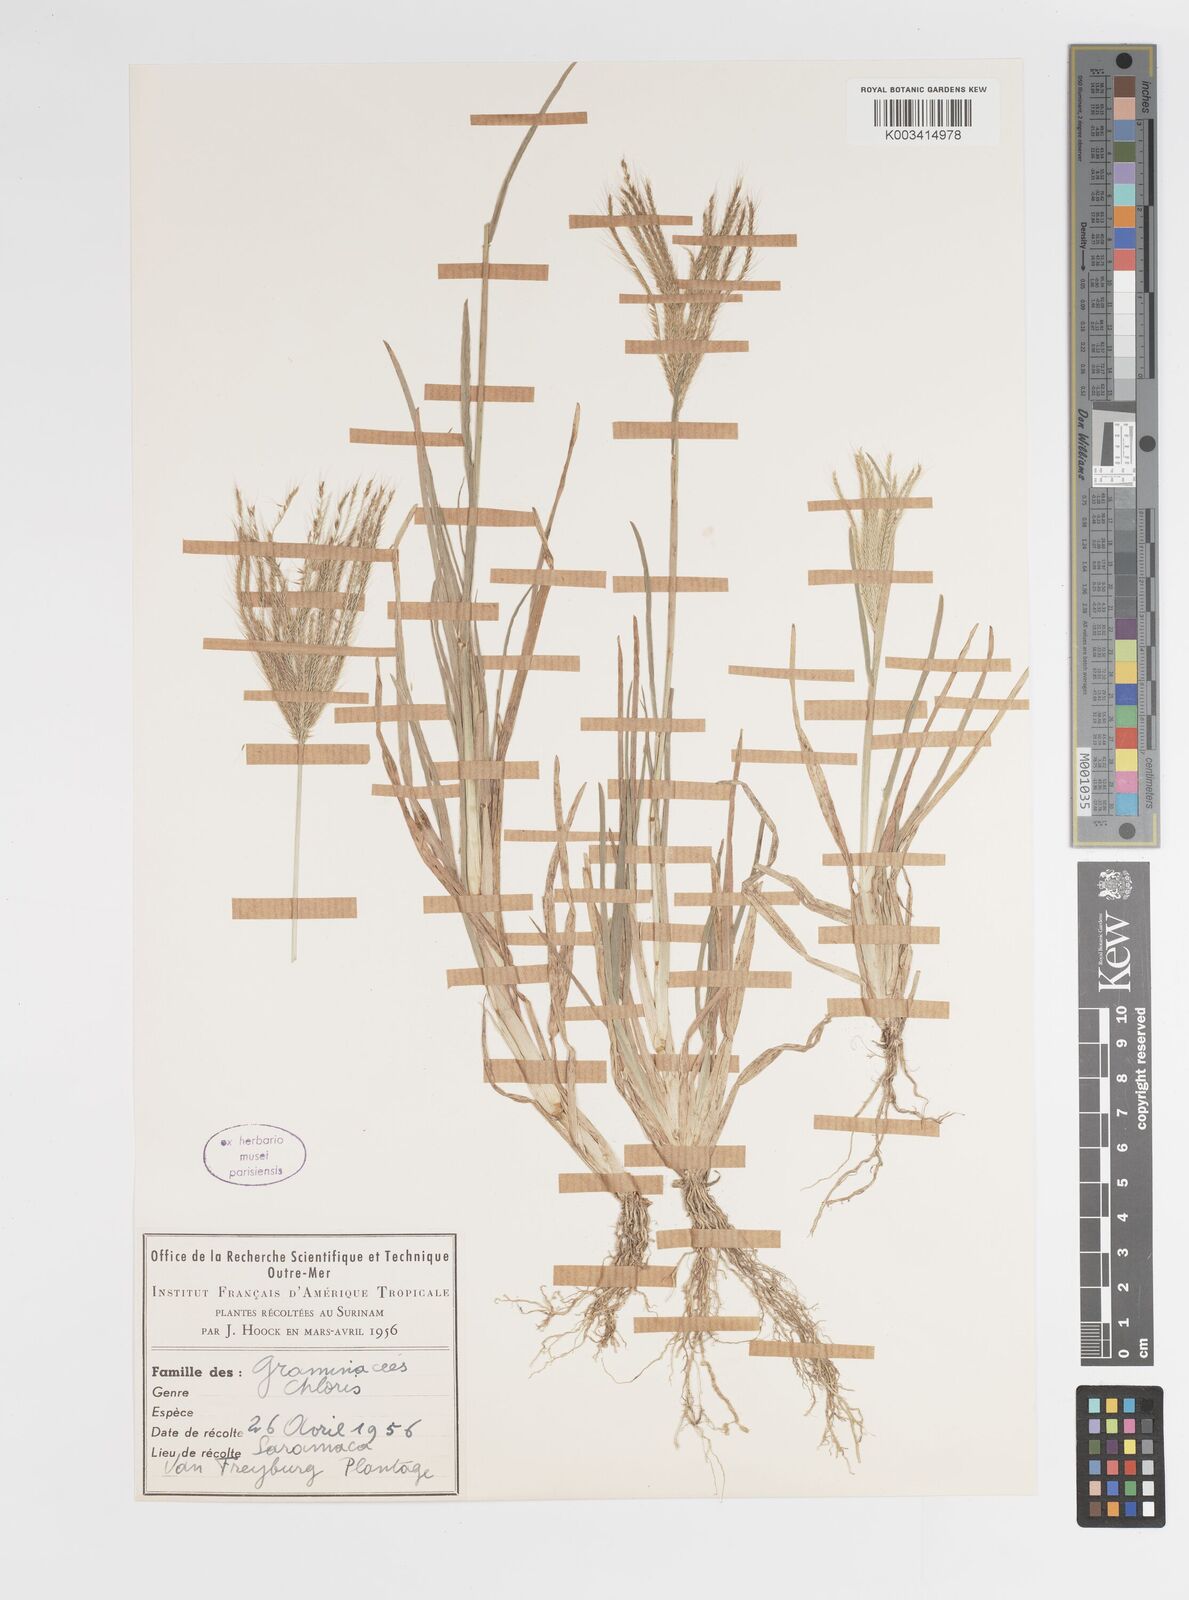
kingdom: Plantae
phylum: Tracheophyta
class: Liliopsida
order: Poales
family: Poaceae
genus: Chloris
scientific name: Chloris barbata
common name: Swollen fingergrass
